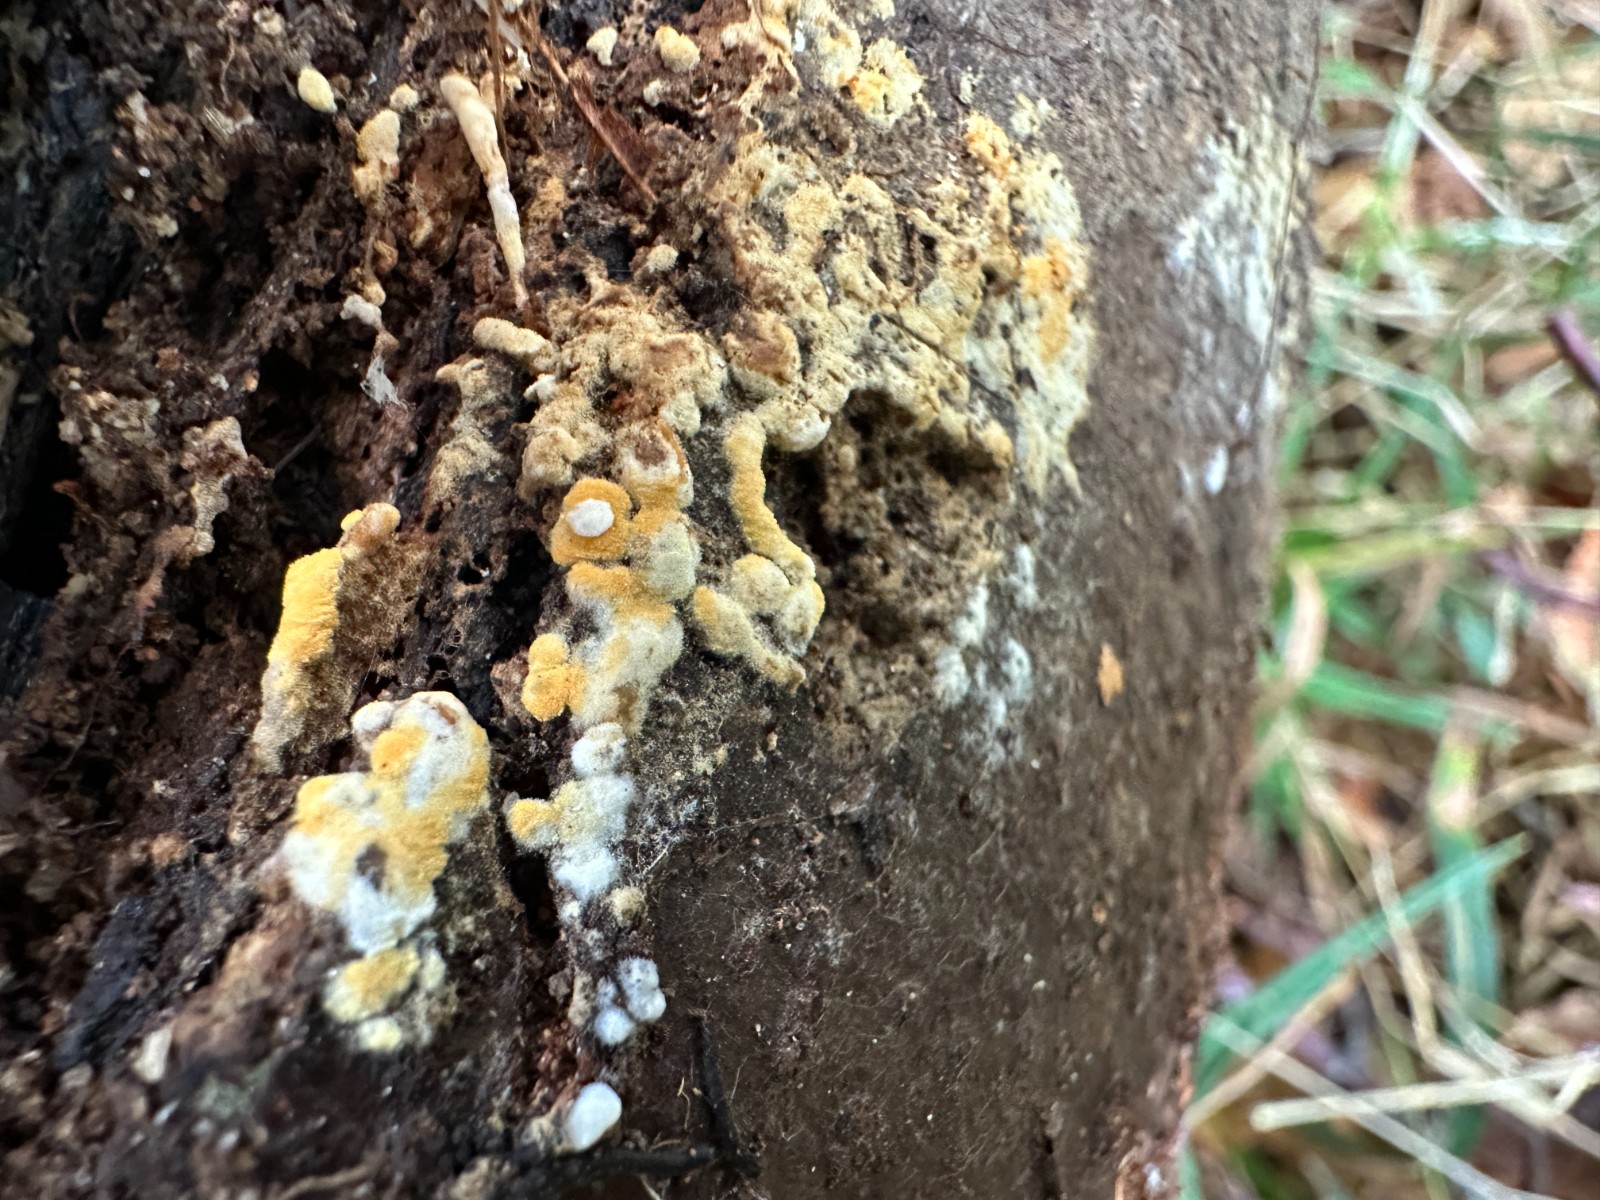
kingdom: Fungi
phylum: Basidiomycota
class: Agaricomycetes
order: Cantharellales
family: Botryobasidiaceae
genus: Botryobasidium
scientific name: Botryobasidium aureum
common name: gylden spindhinde
